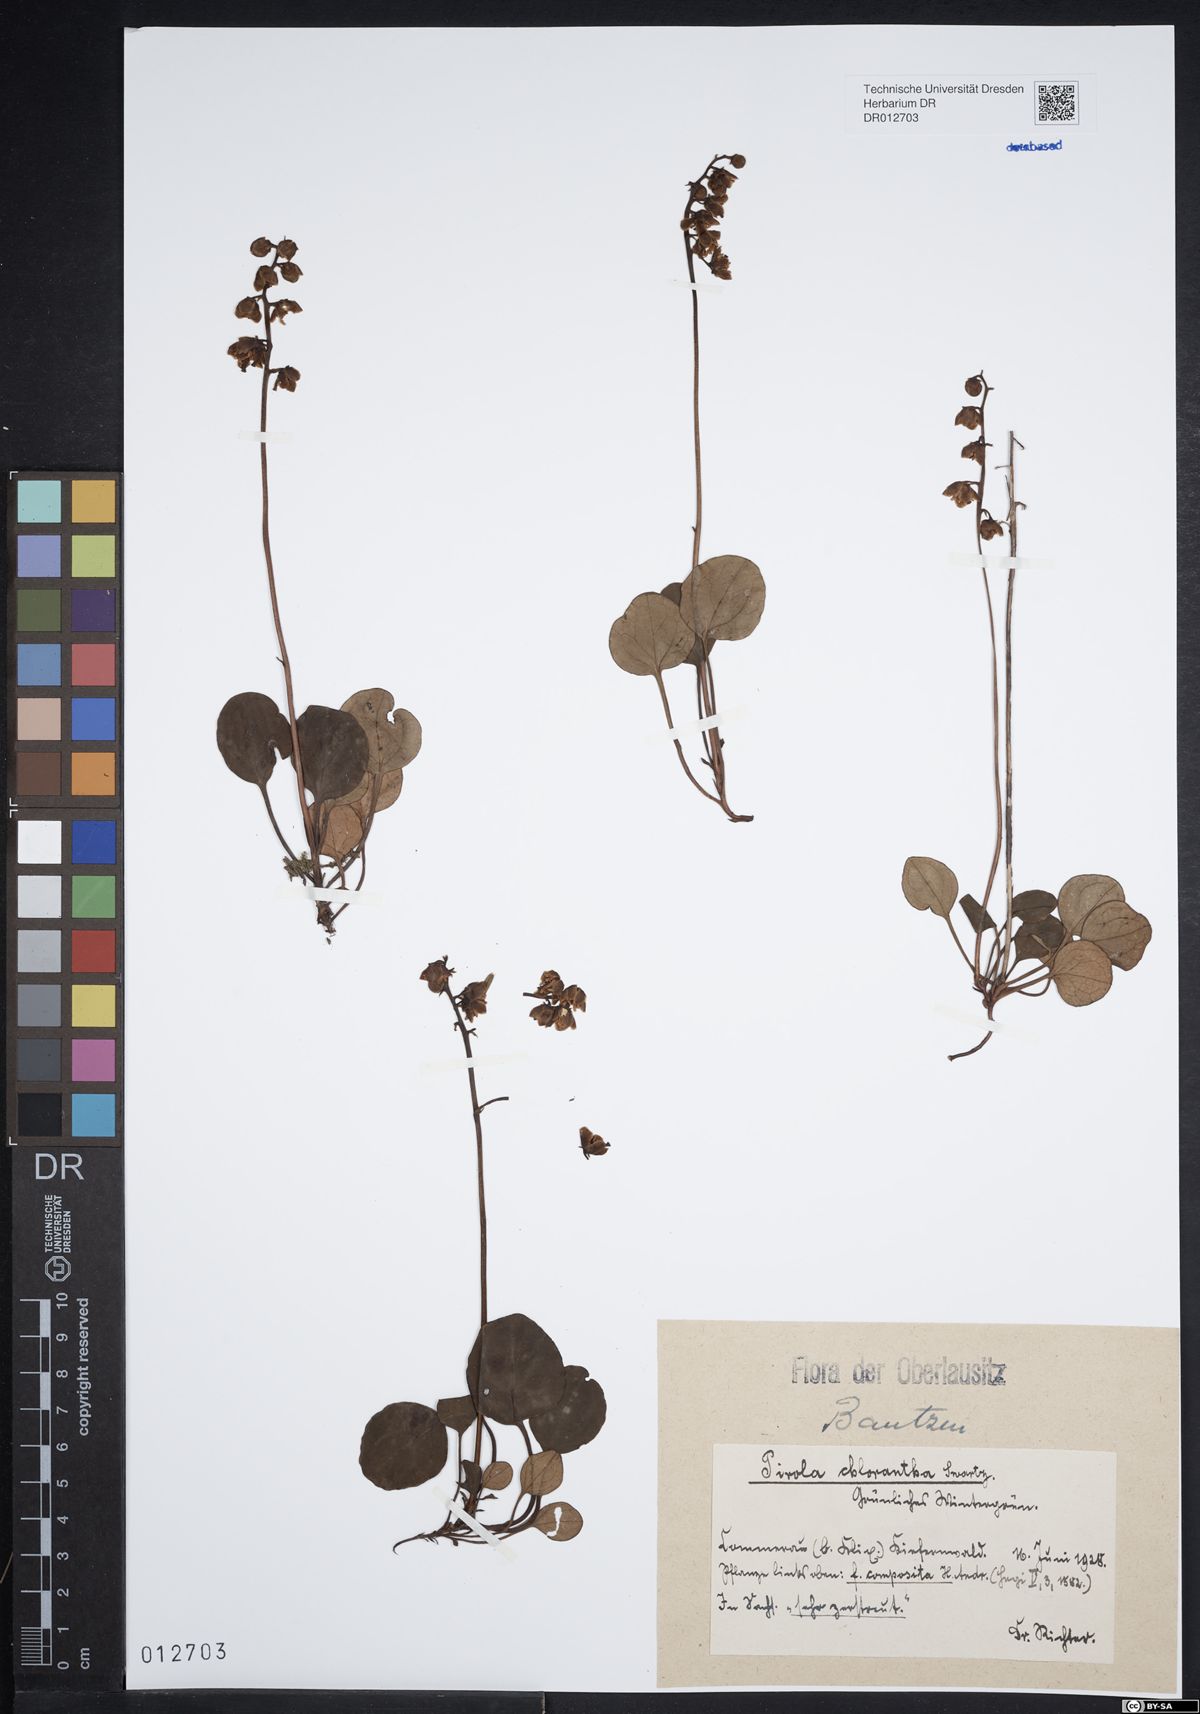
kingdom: Plantae
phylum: Tracheophyta
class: Magnoliopsida
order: Ericales
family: Ericaceae
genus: Pyrola
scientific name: Pyrola chlorantha
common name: Green wintergreen
